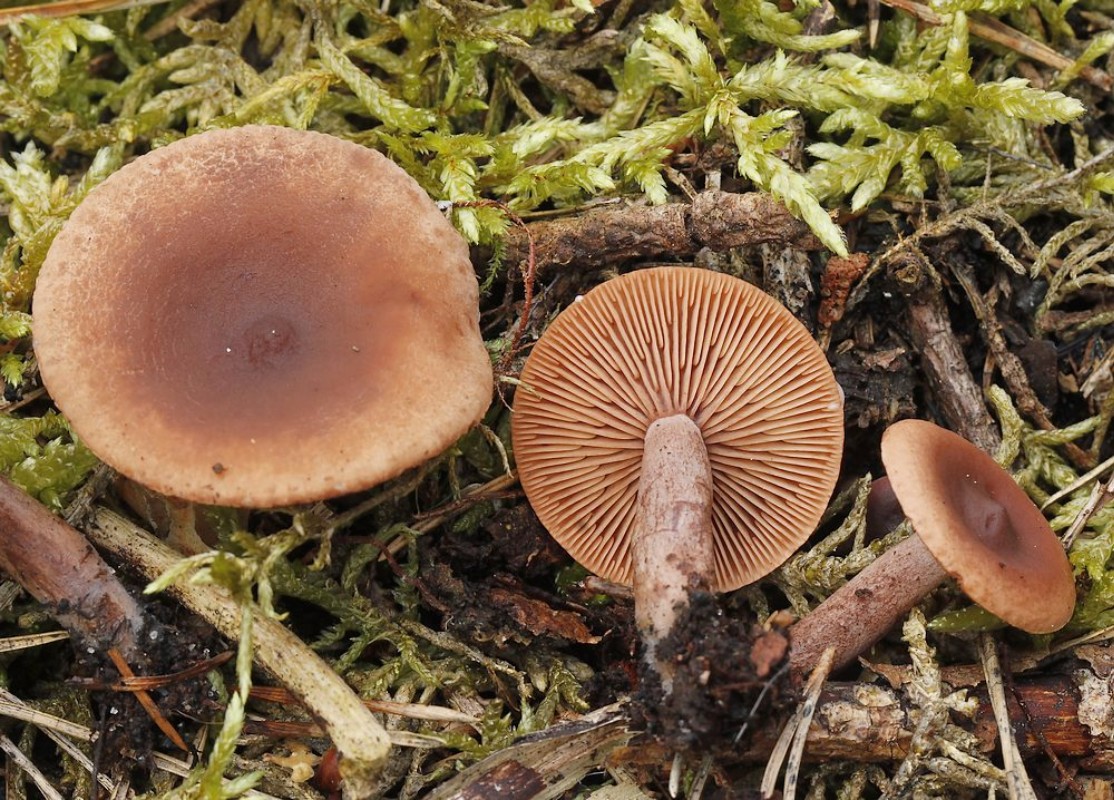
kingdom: Fungi
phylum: Basidiomycota
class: Agaricomycetes
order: Russulales
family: Russulaceae
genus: Lactarius
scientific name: Lactarius rufus
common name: rødbrun mælkehat
